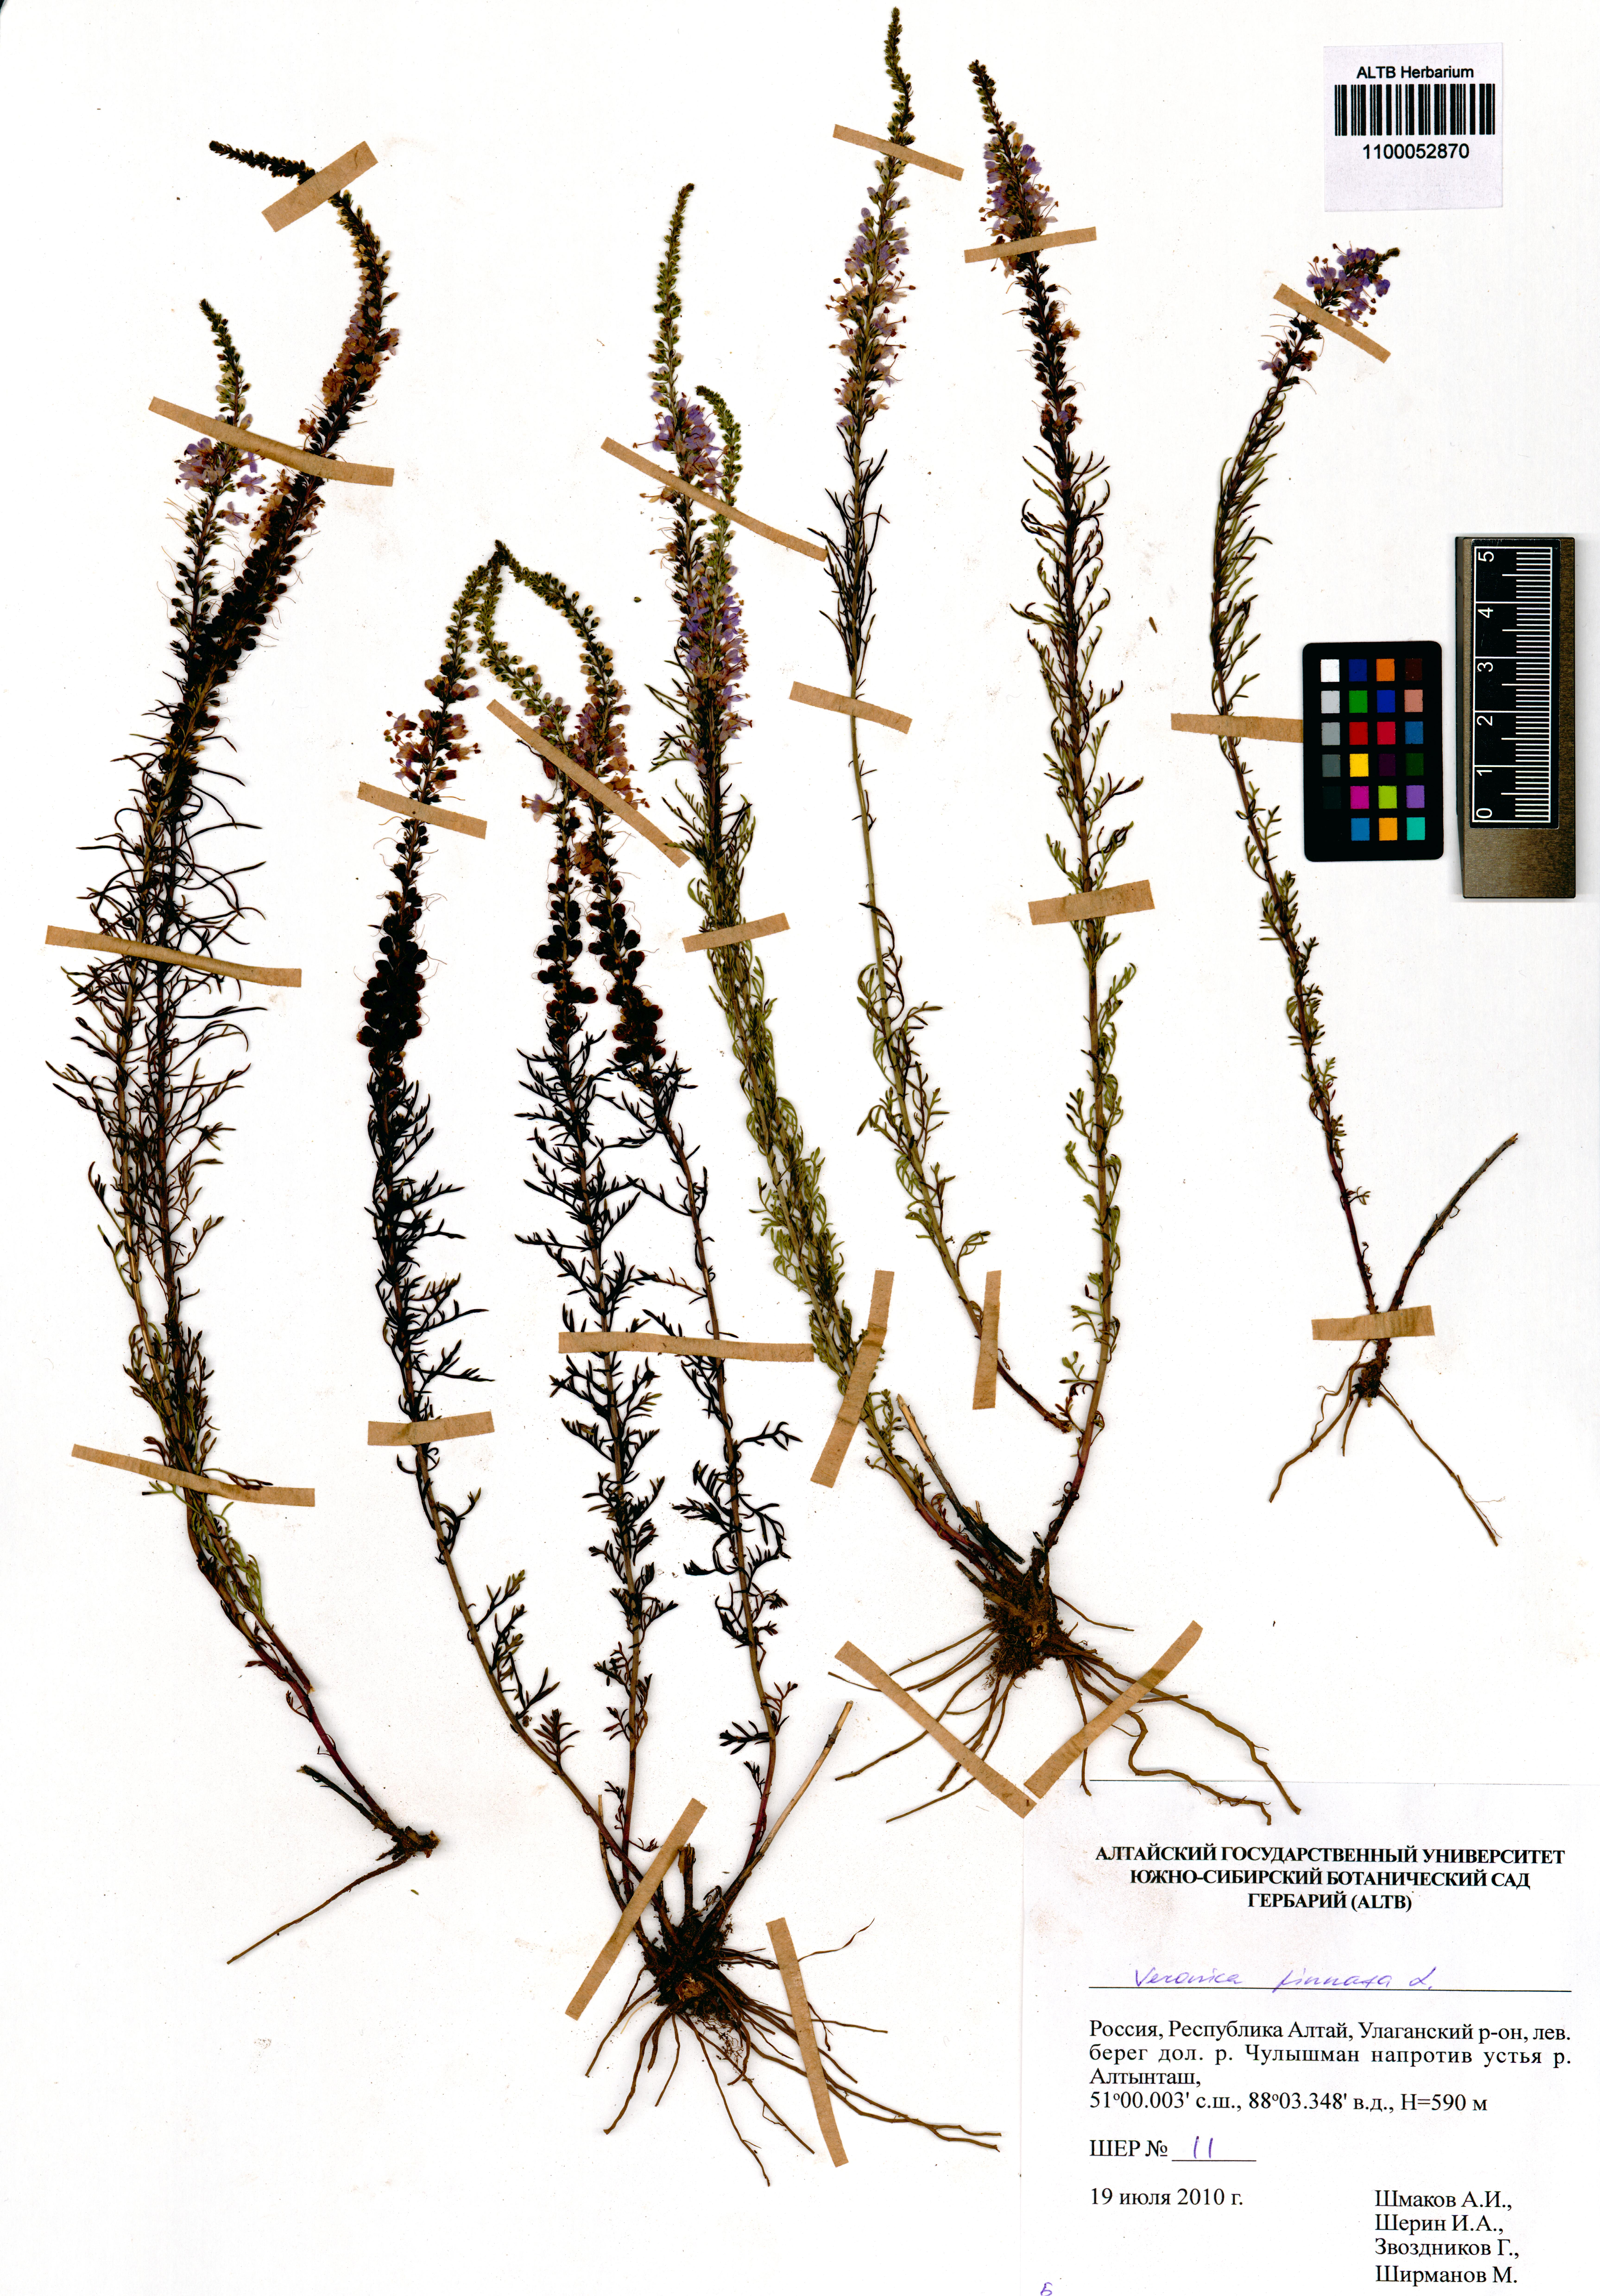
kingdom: Plantae
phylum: Tracheophyta
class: Magnoliopsida
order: Lamiales
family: Plantaginaceae
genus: Veronica
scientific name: Veronica pinnata
